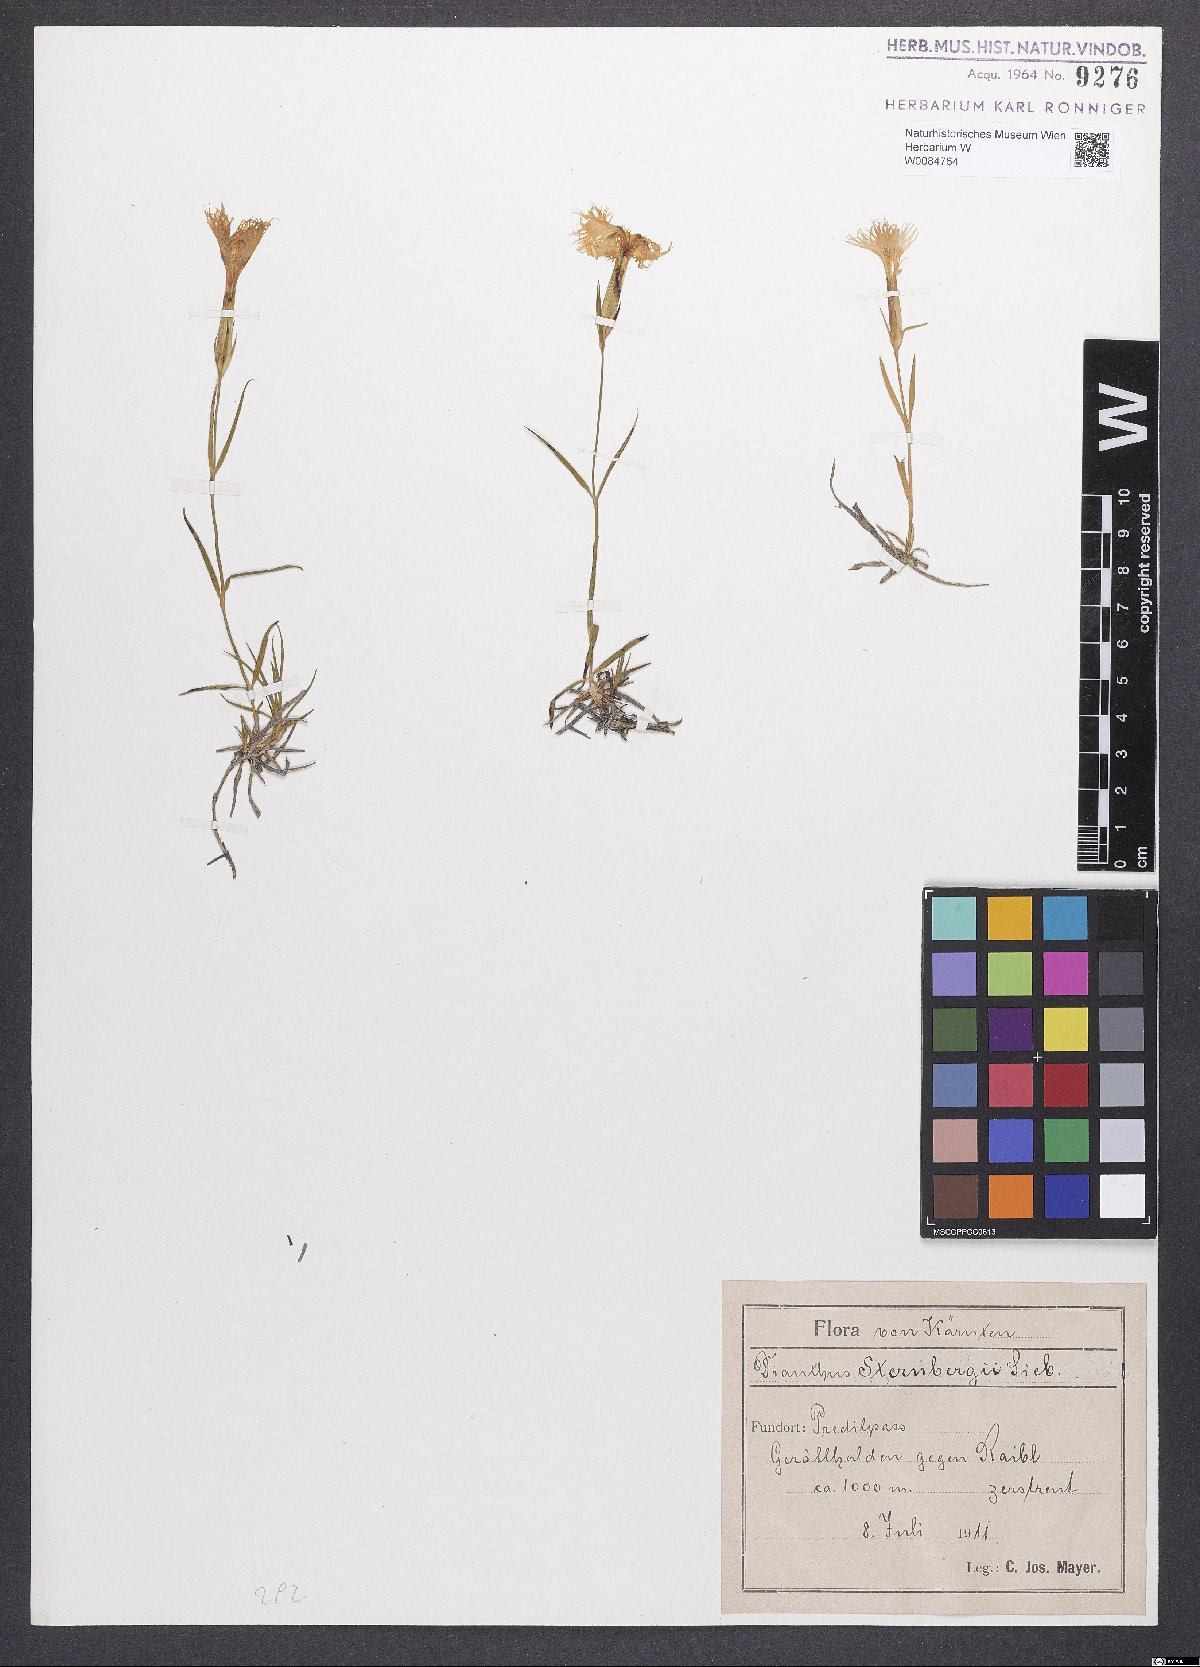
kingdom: Plantae
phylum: Tracheophyta
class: Magnoliopsida
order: Caryophyllales
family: Caryophyllaceae
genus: Dianthus
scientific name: Dianthus monspessulanus
